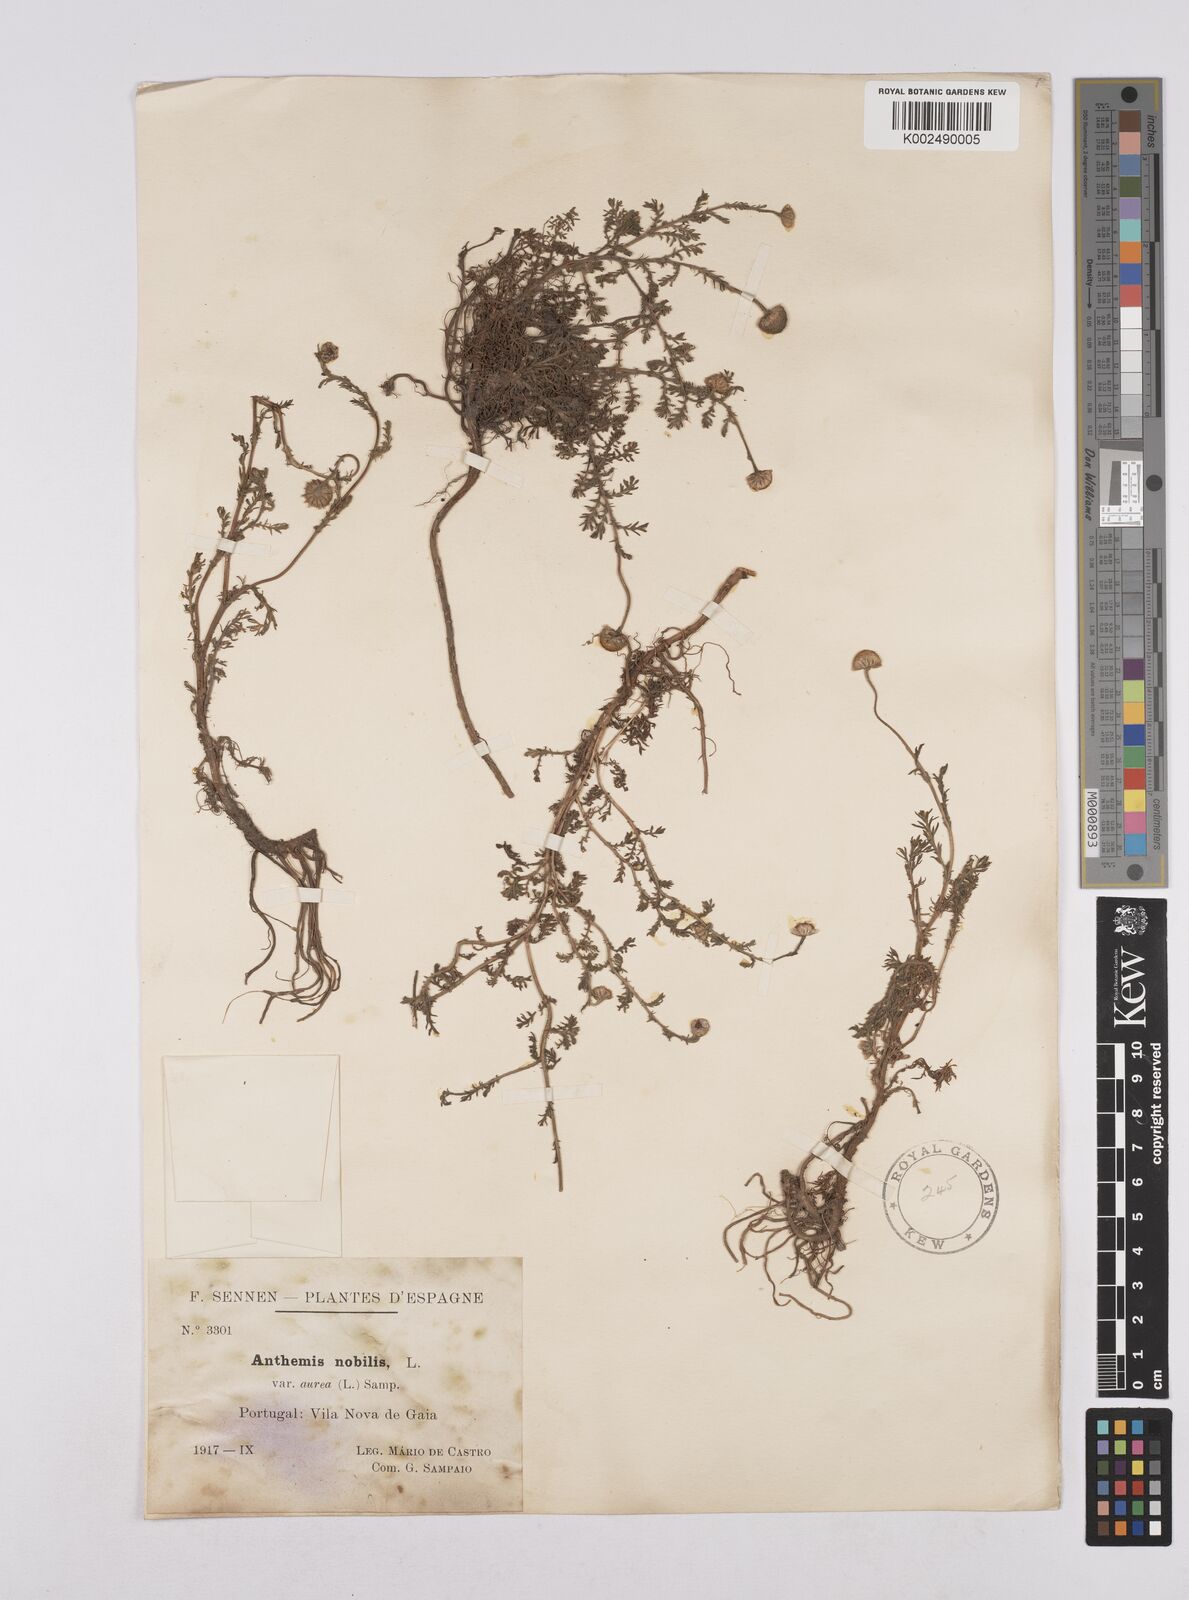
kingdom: Plantae
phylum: Tracheophyta
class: Magnoliopsida
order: Asterales
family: Asteraceae
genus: Matricaria
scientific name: Matricaria aurea
